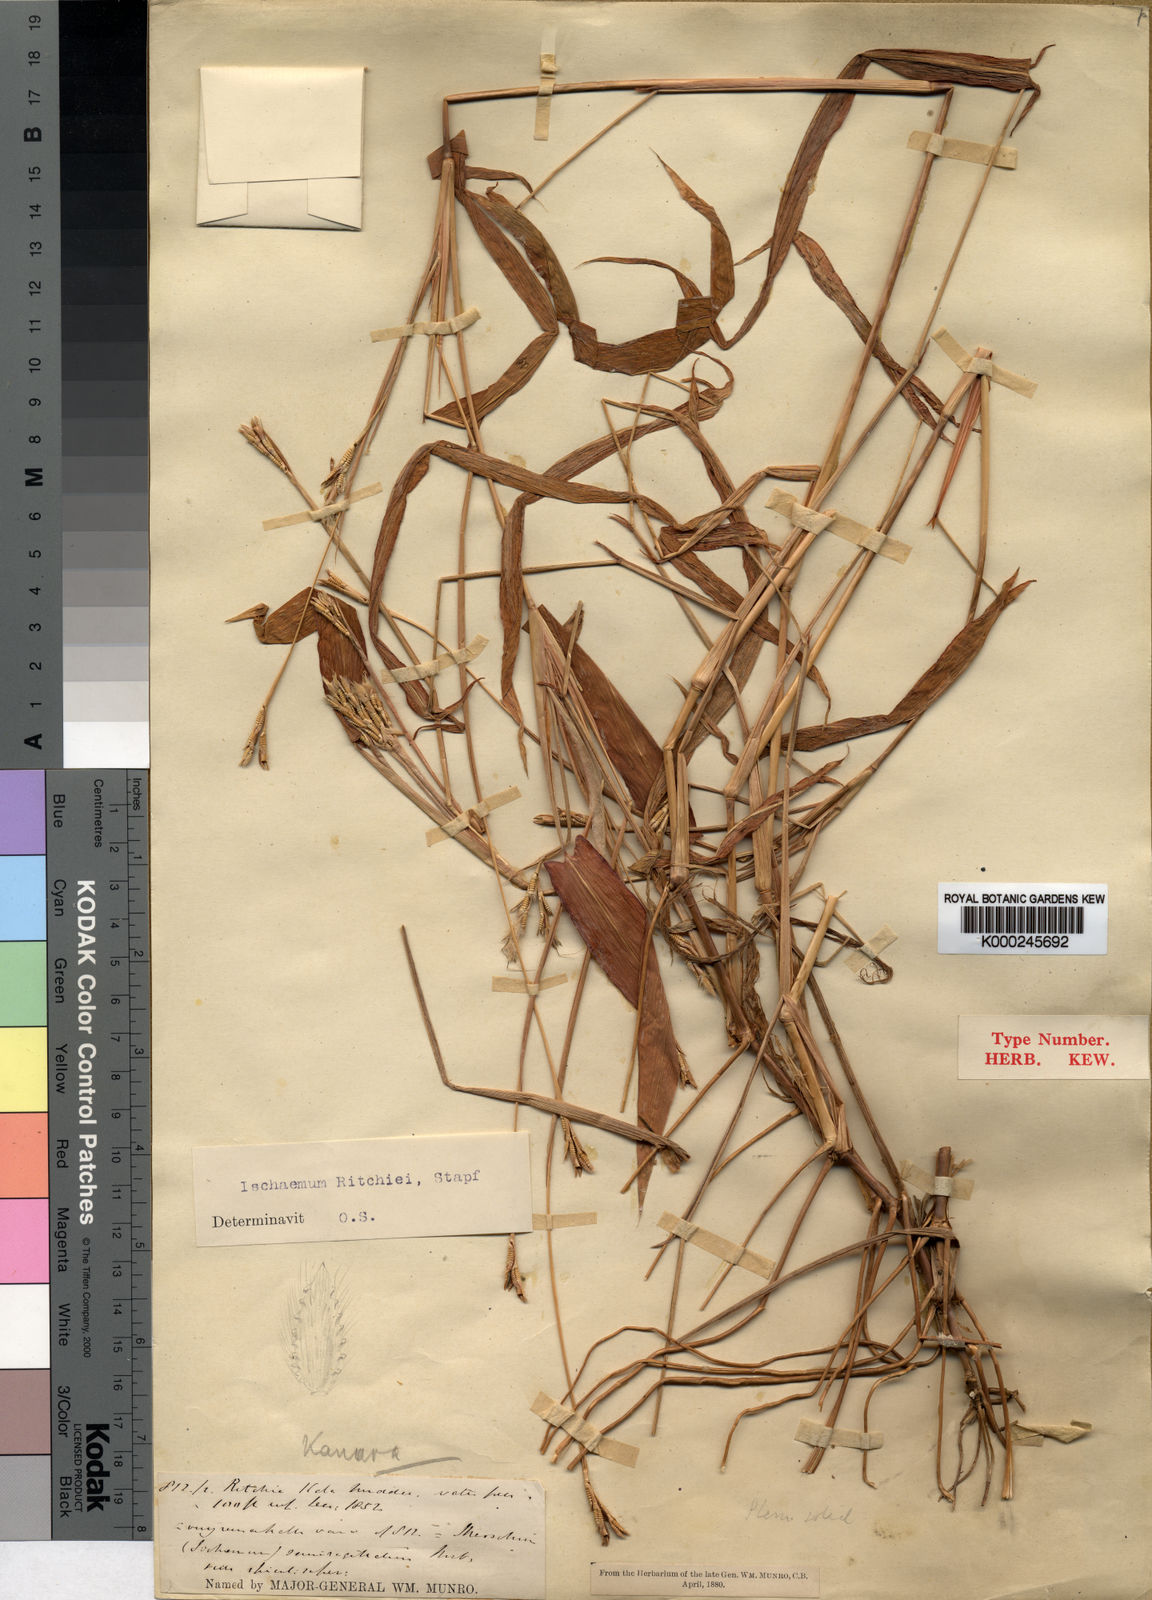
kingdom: Plantae
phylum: Tracheophyta
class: Liliopsida
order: Poales
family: Poaceae
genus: Ischaemum
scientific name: Ischaemum ritchiei
